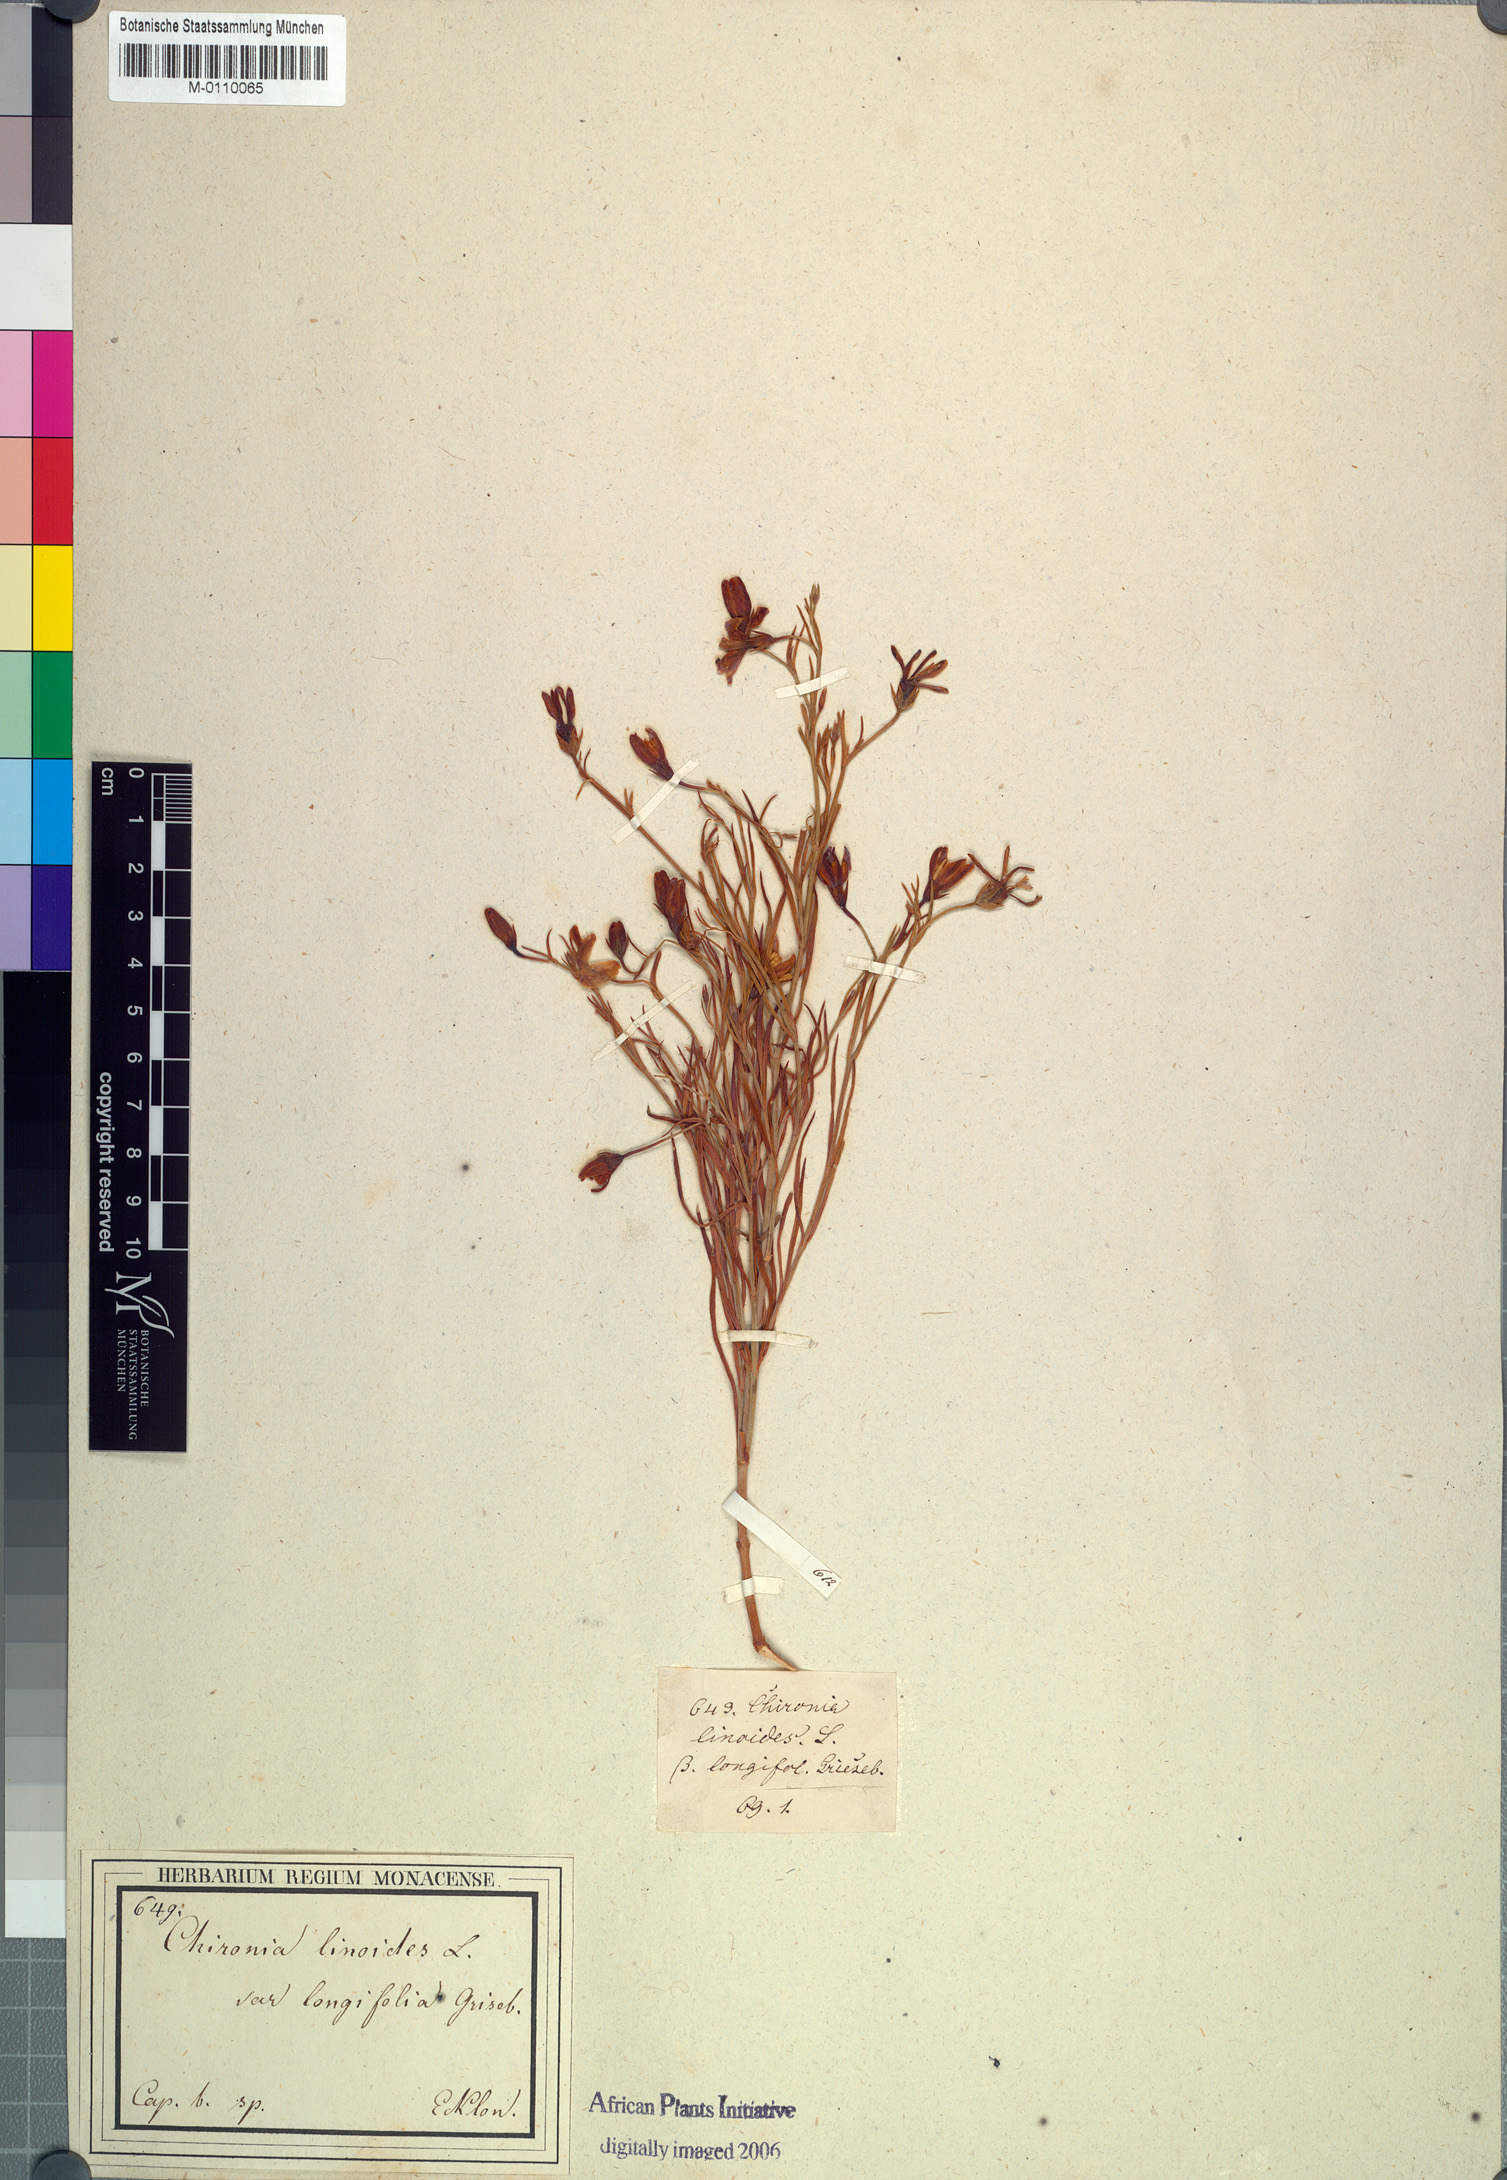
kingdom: Plantae
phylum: Tracheophyta
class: Magnoliopsida
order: Gentianales
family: Gentianaceae
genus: Chironia
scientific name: Chironia linoides
